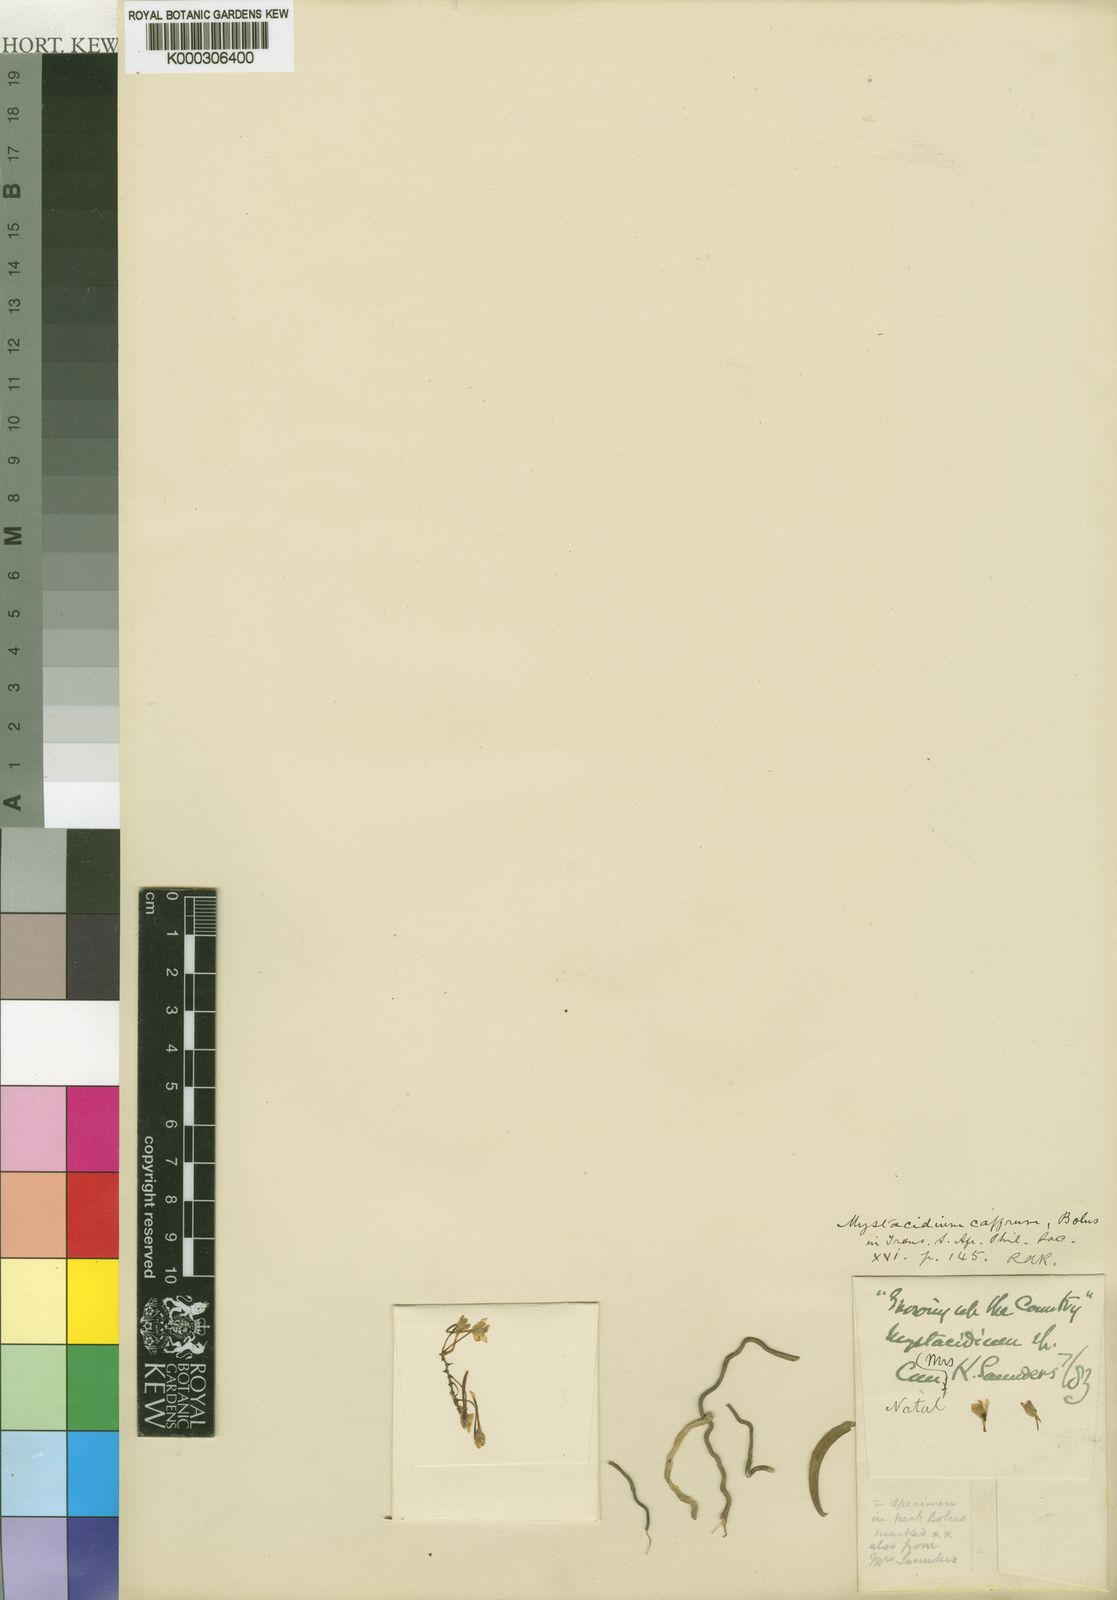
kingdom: Plantae
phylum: Tracheophyta
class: Liliopsida
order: Asparagales
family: Orchidaceae
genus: Rhipidoglossum
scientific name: Rhipidoglossum caffrum
